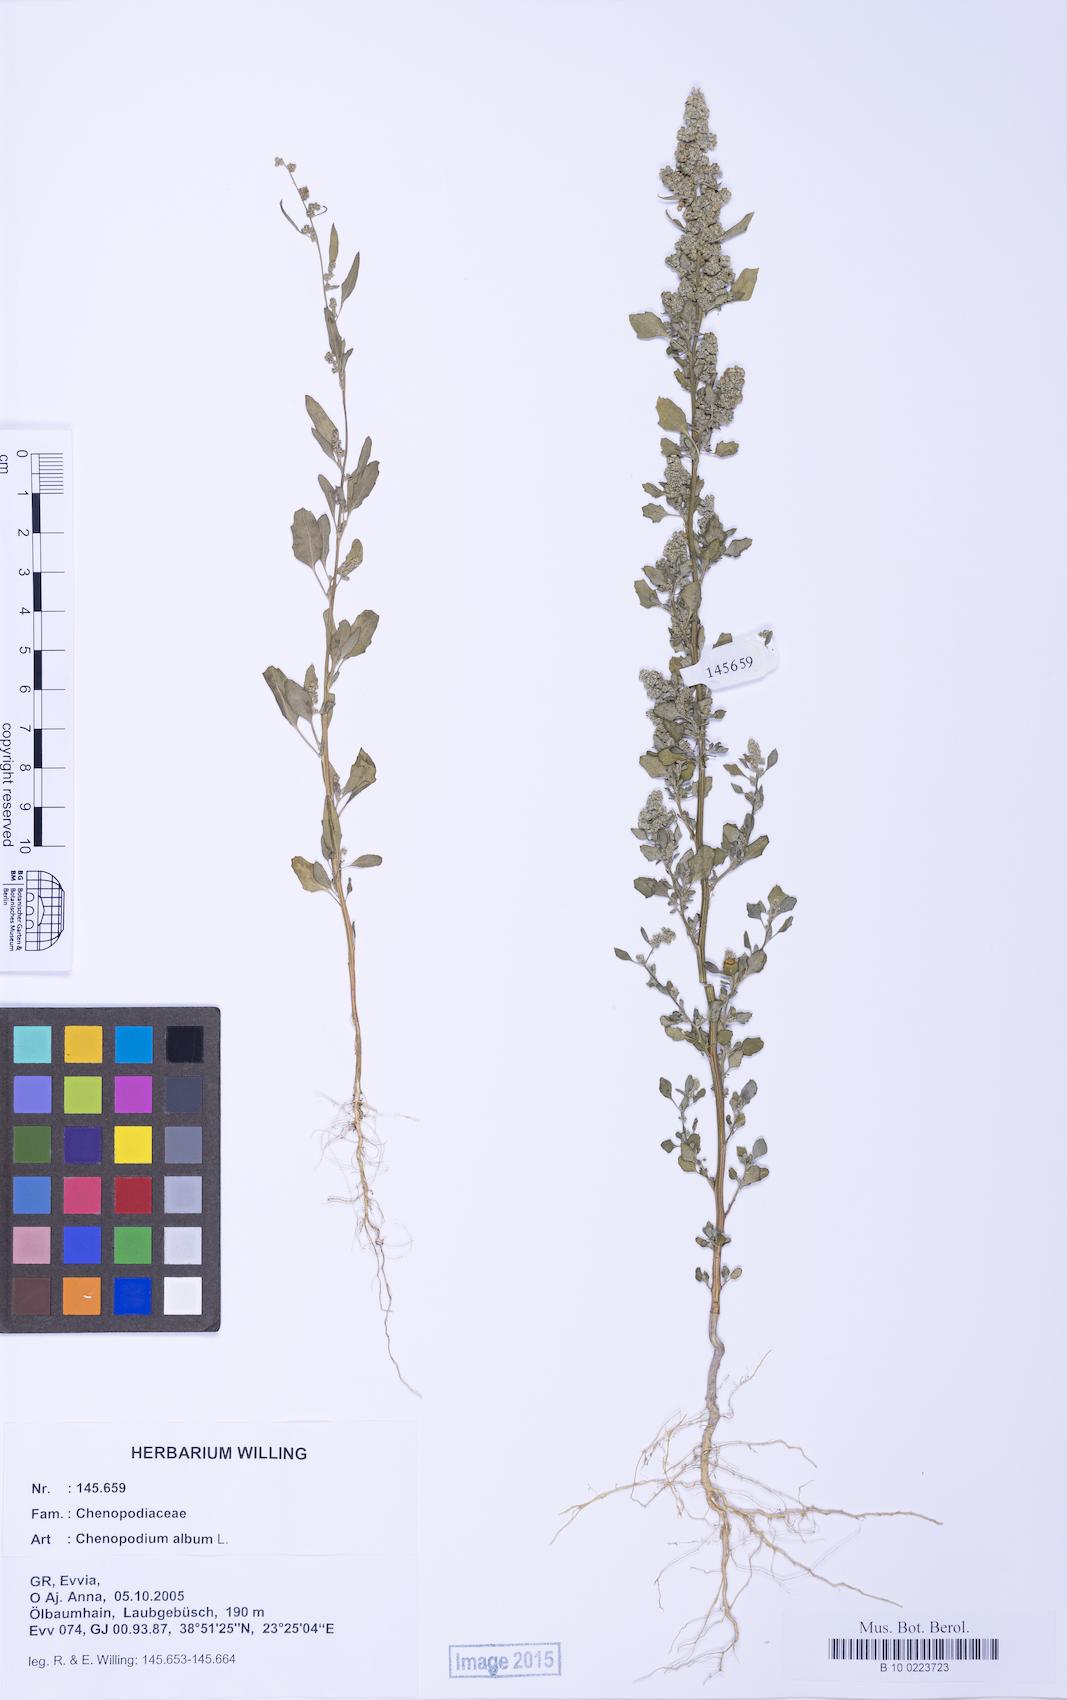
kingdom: Plantae
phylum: Tracheophyta
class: Magnoliopsida
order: Caryophyllales
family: Amaranthaceae
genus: Chenopodium
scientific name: Chenopodium album
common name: Fat-hen
